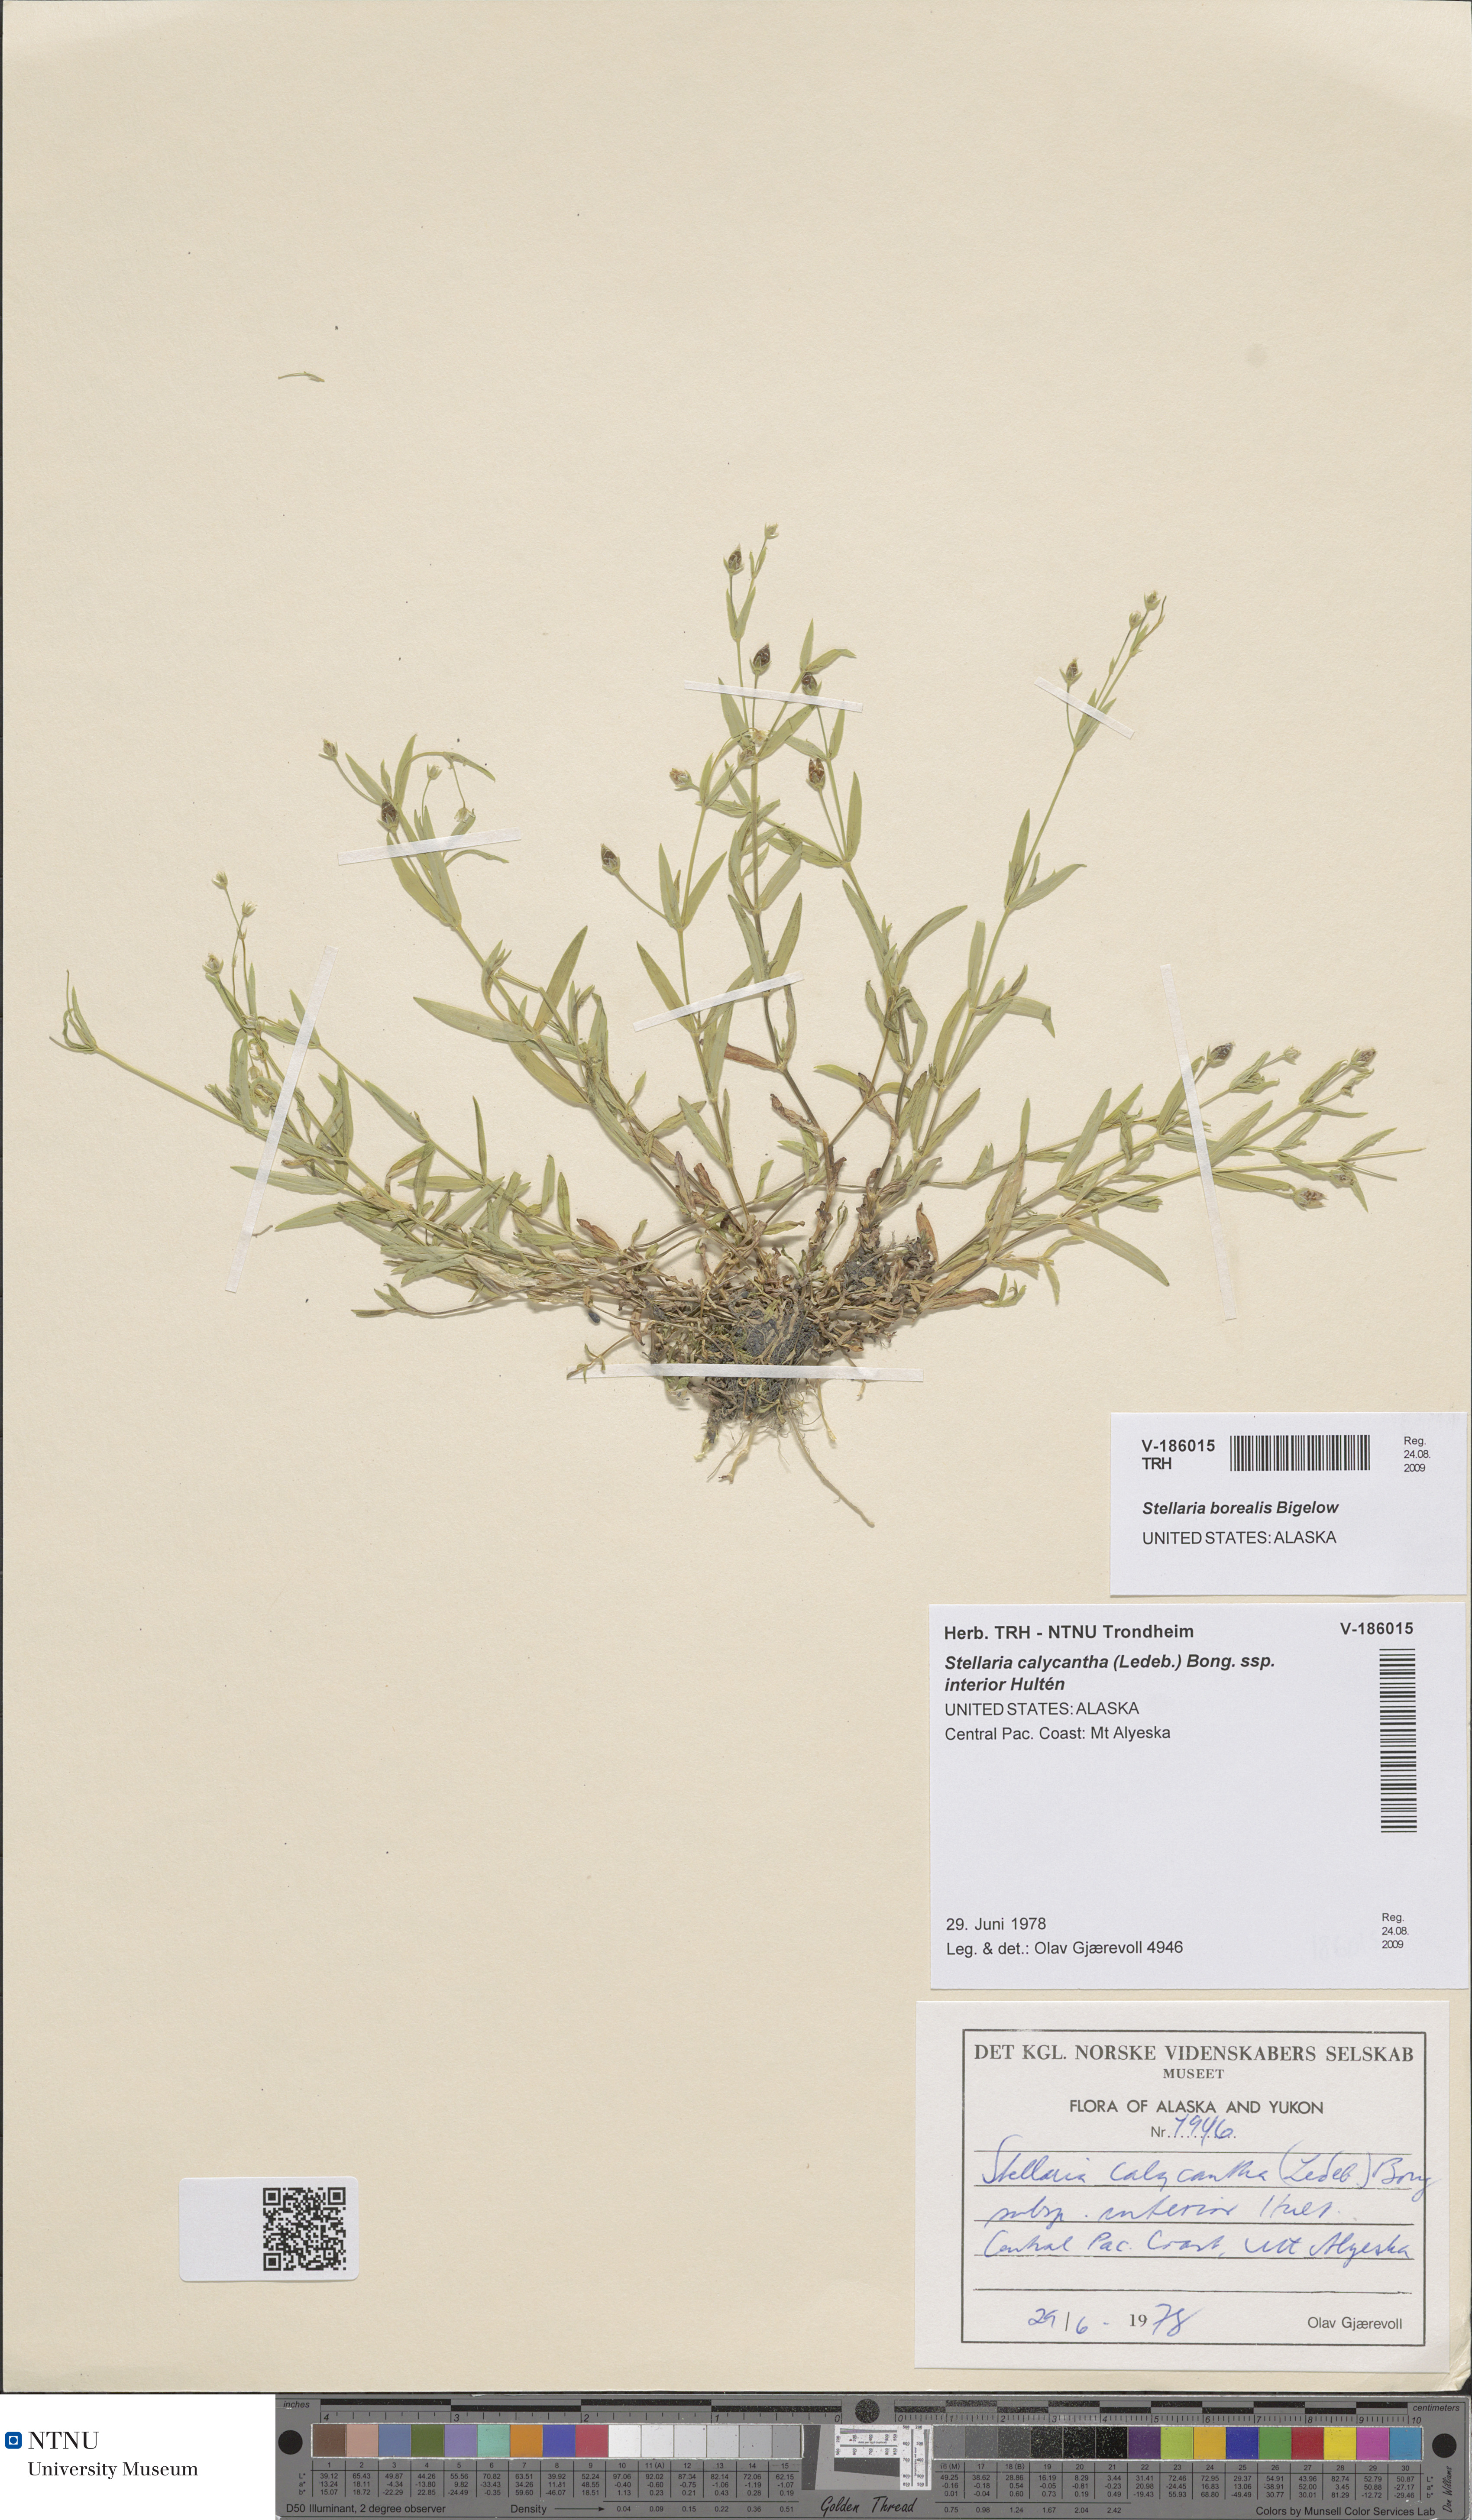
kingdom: Plantae
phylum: Tracheophyta
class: Magnoliopsida
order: Caryophyllales
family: Caryophyllaceae
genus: Stellaria
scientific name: Stellaria borealis
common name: Boreal starwort
